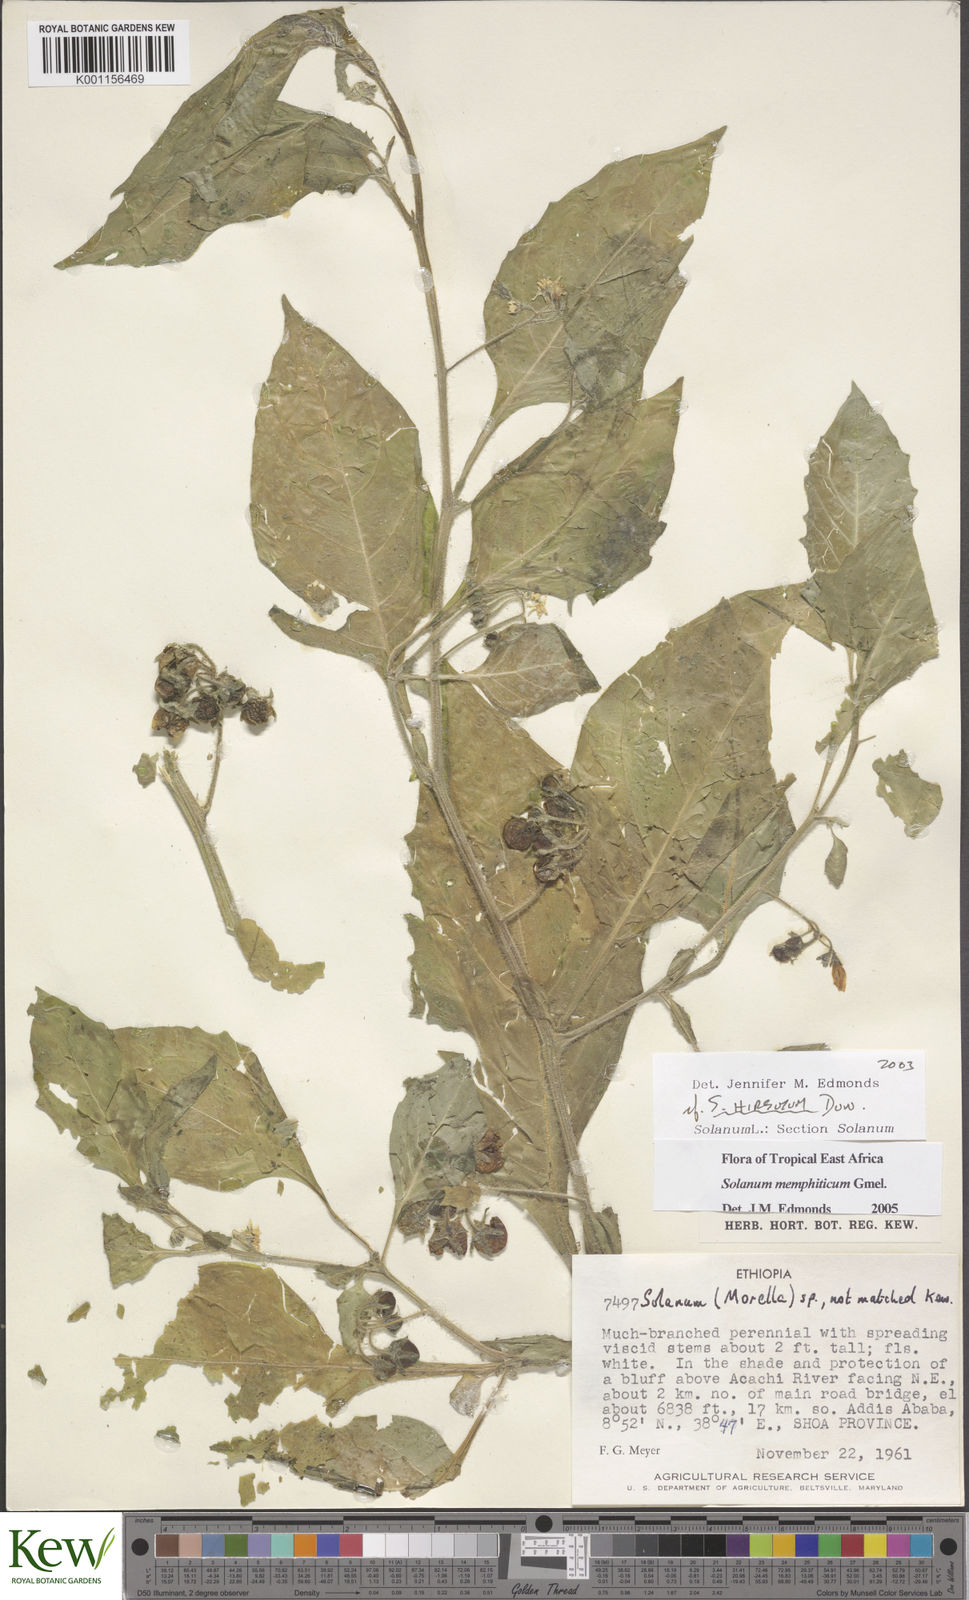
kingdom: Plantae
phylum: Tracheophyta
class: Magnoliopsida
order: Solanales
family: Solanaceae
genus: Solanum
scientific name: Solanum memphiticum
